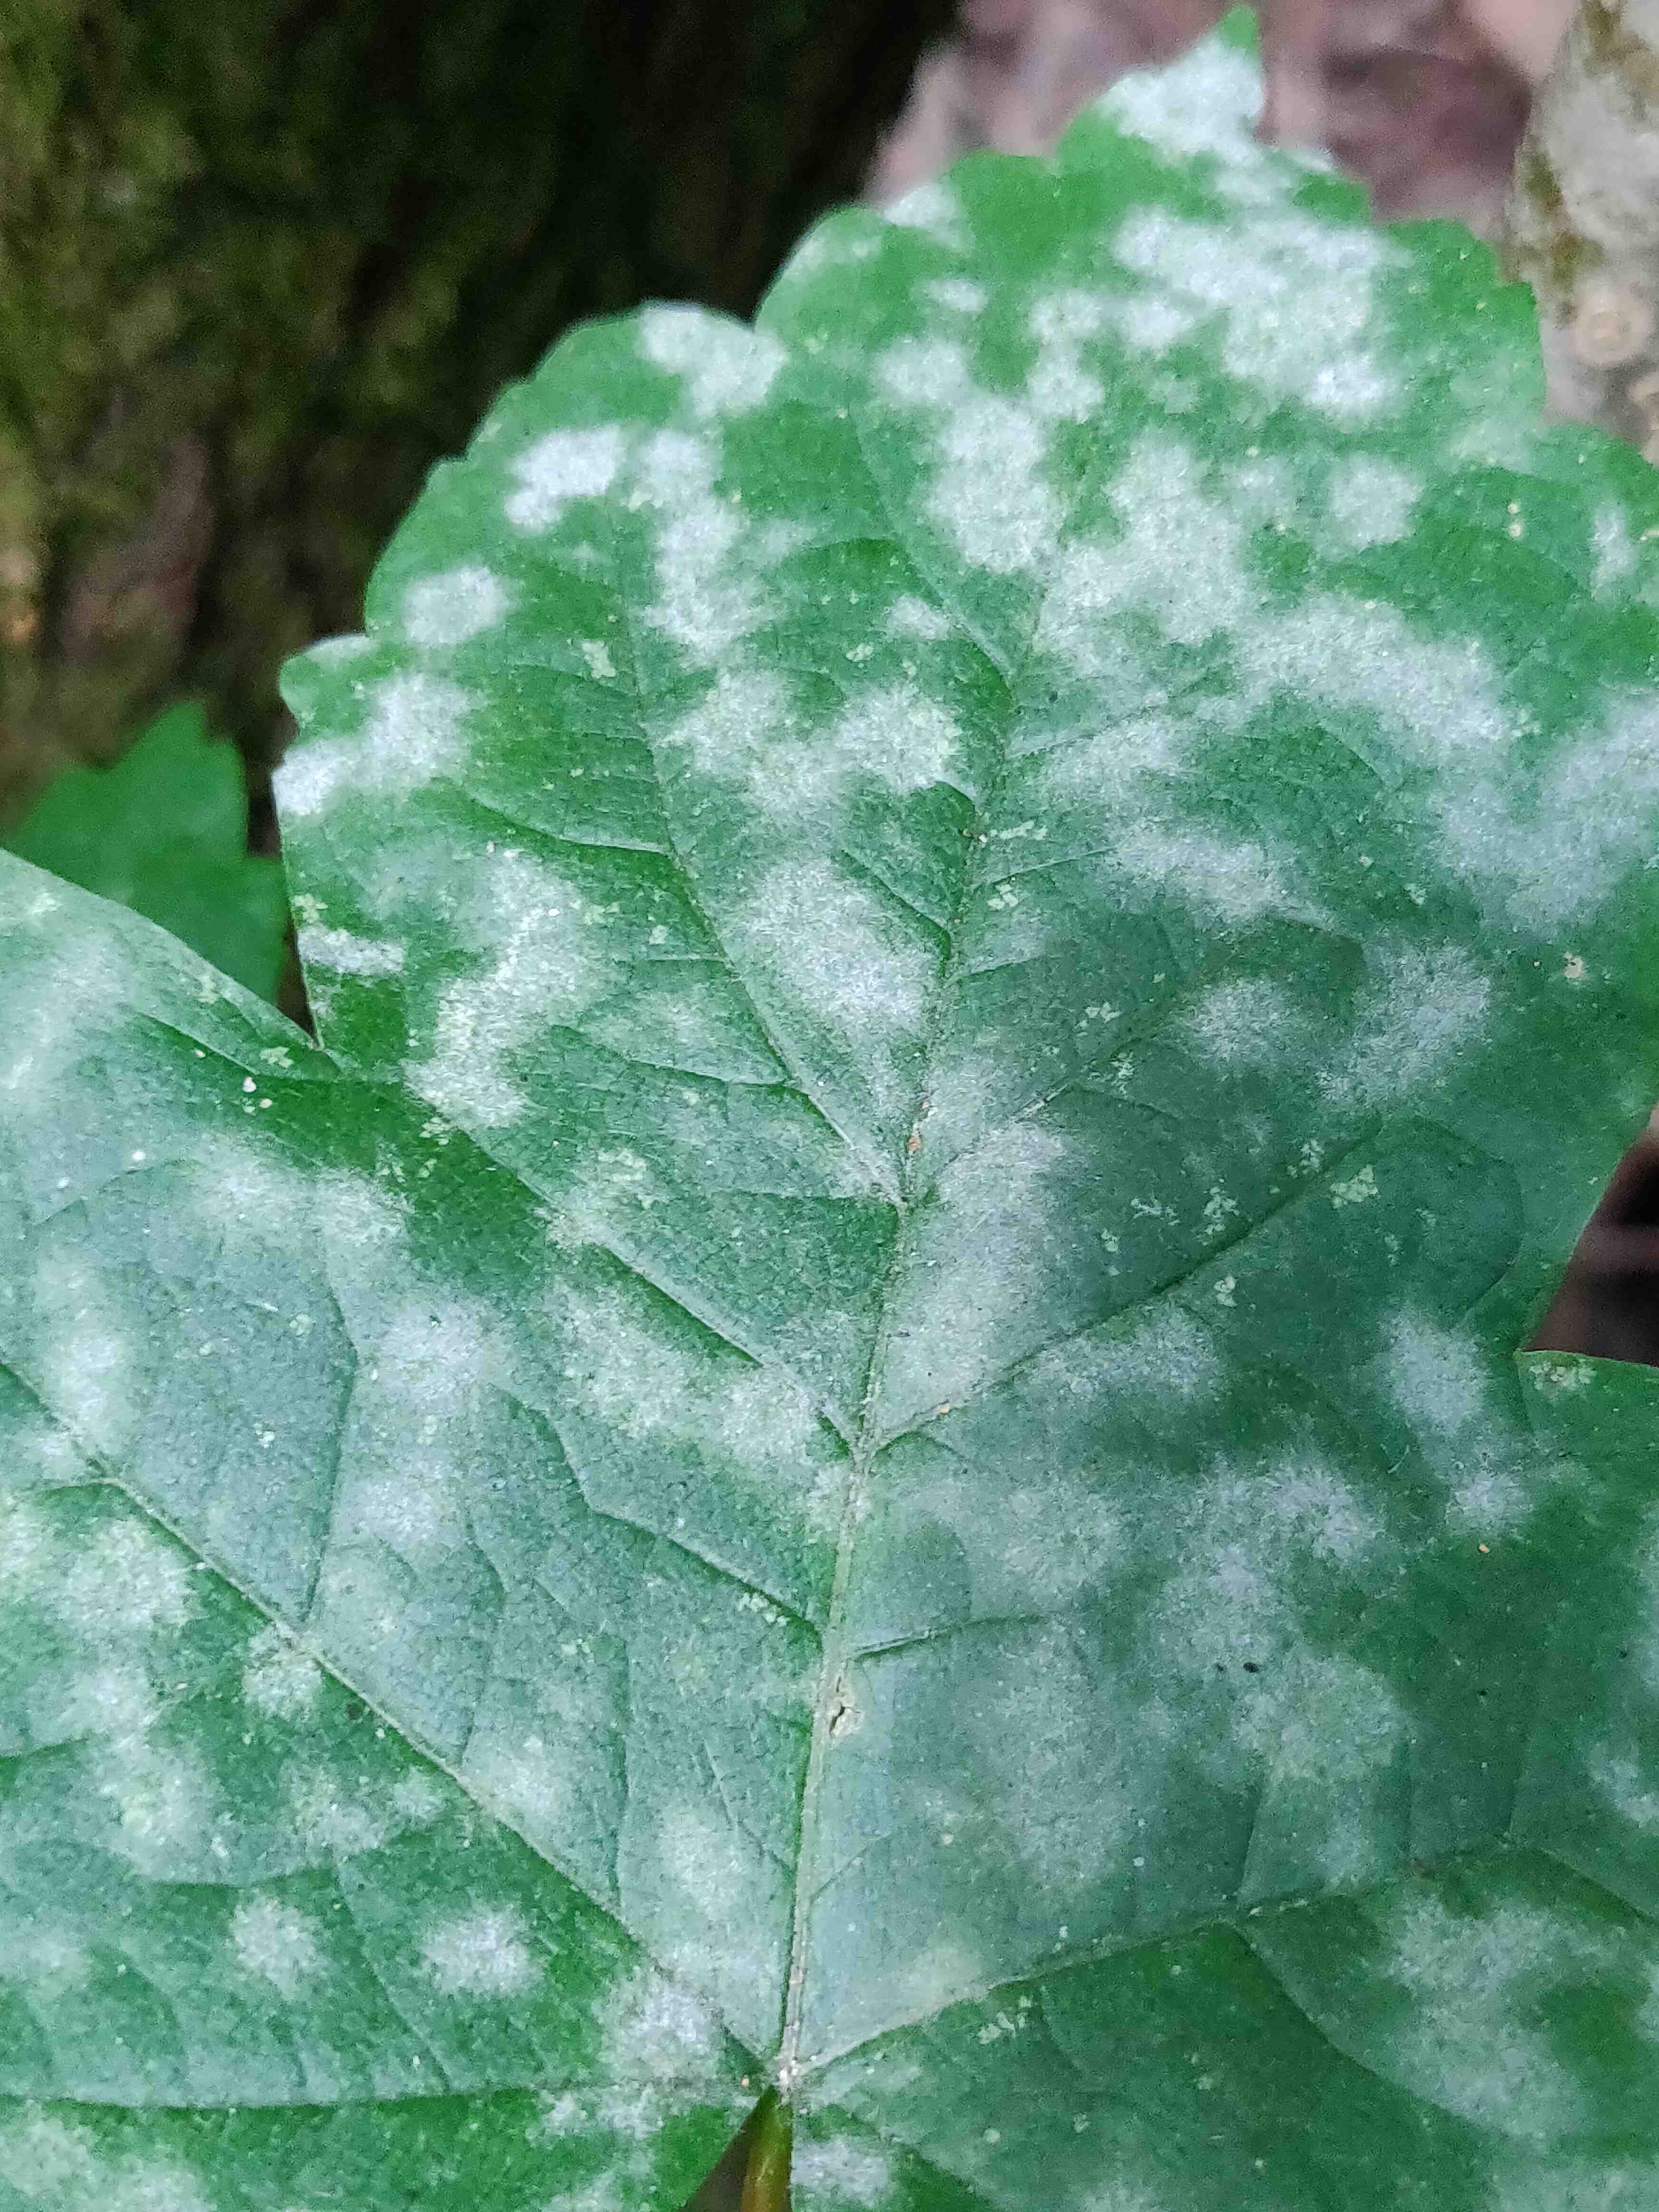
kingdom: Fungi
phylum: Ascomycota
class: Leotiomycetes
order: Helotiales
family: Erysiphaceae
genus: Sawadaea
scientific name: Sawadaea tulasnei
